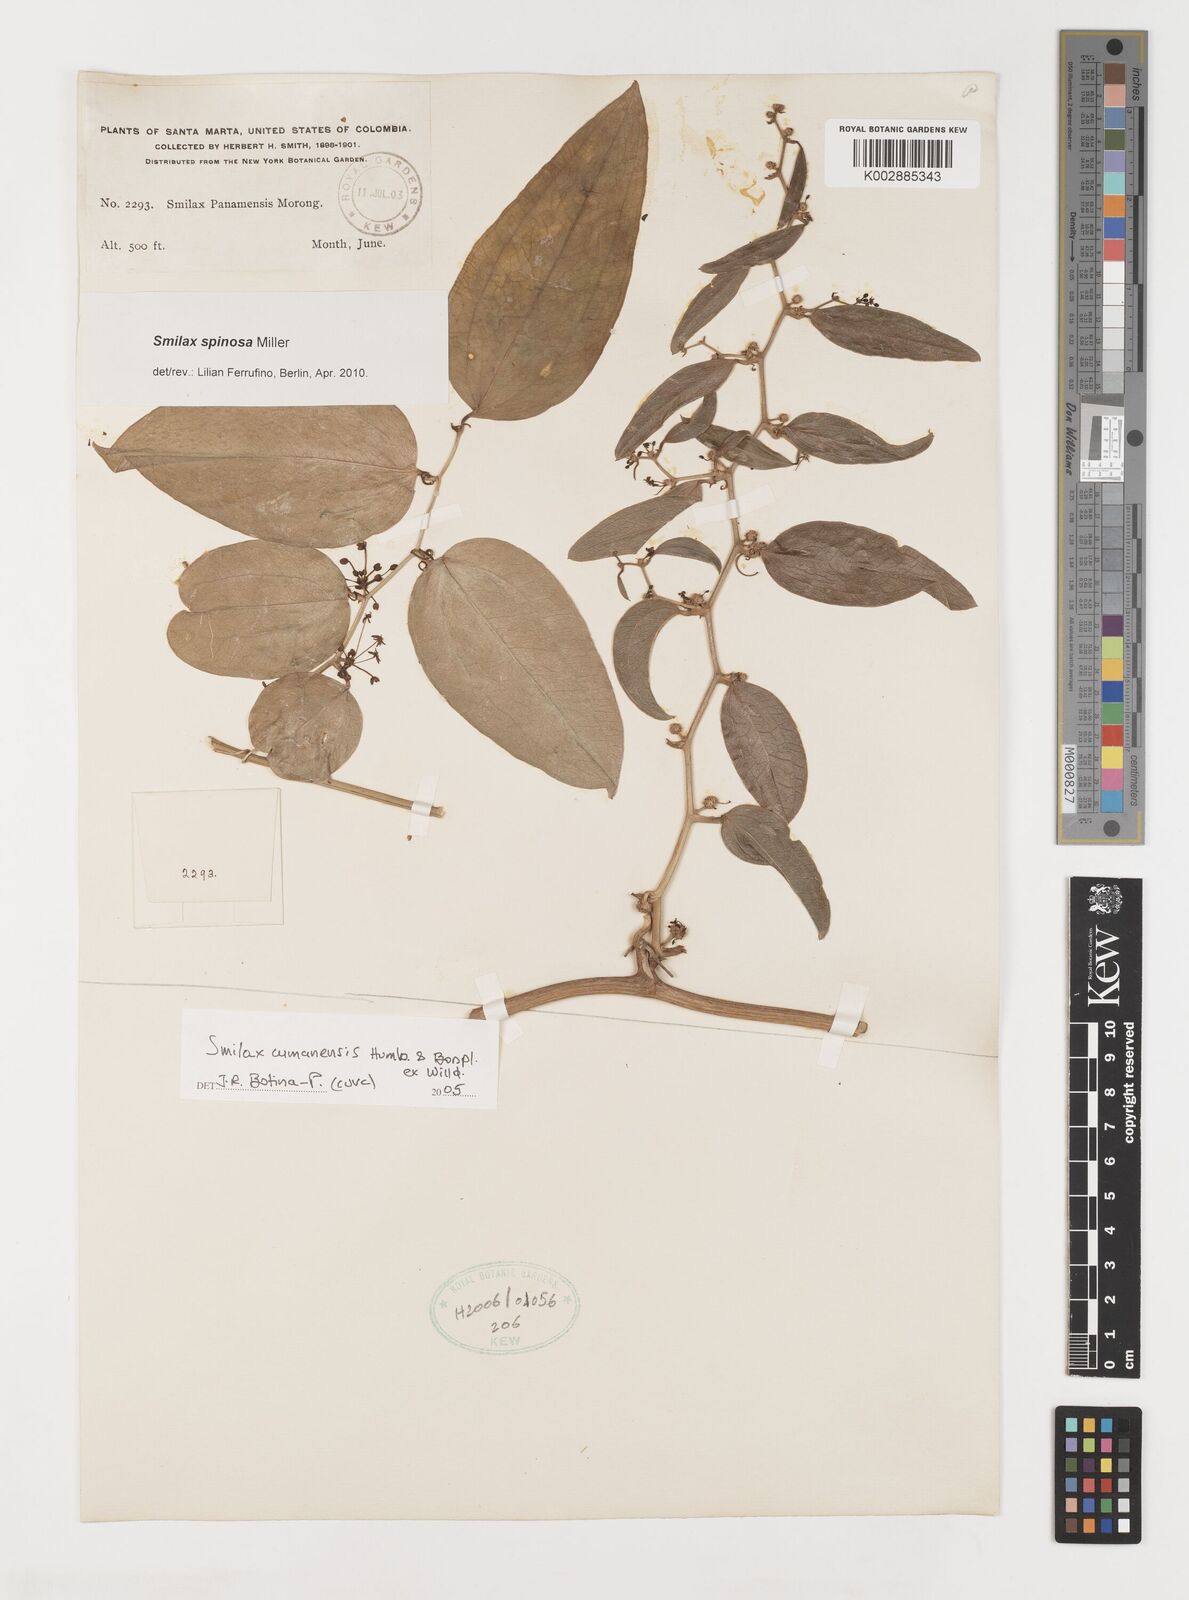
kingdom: Plantae
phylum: Tracheophyta
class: Liliopsida
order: Liliales
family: Smilacaceae
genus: Smilax
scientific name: Smilax spinosa
